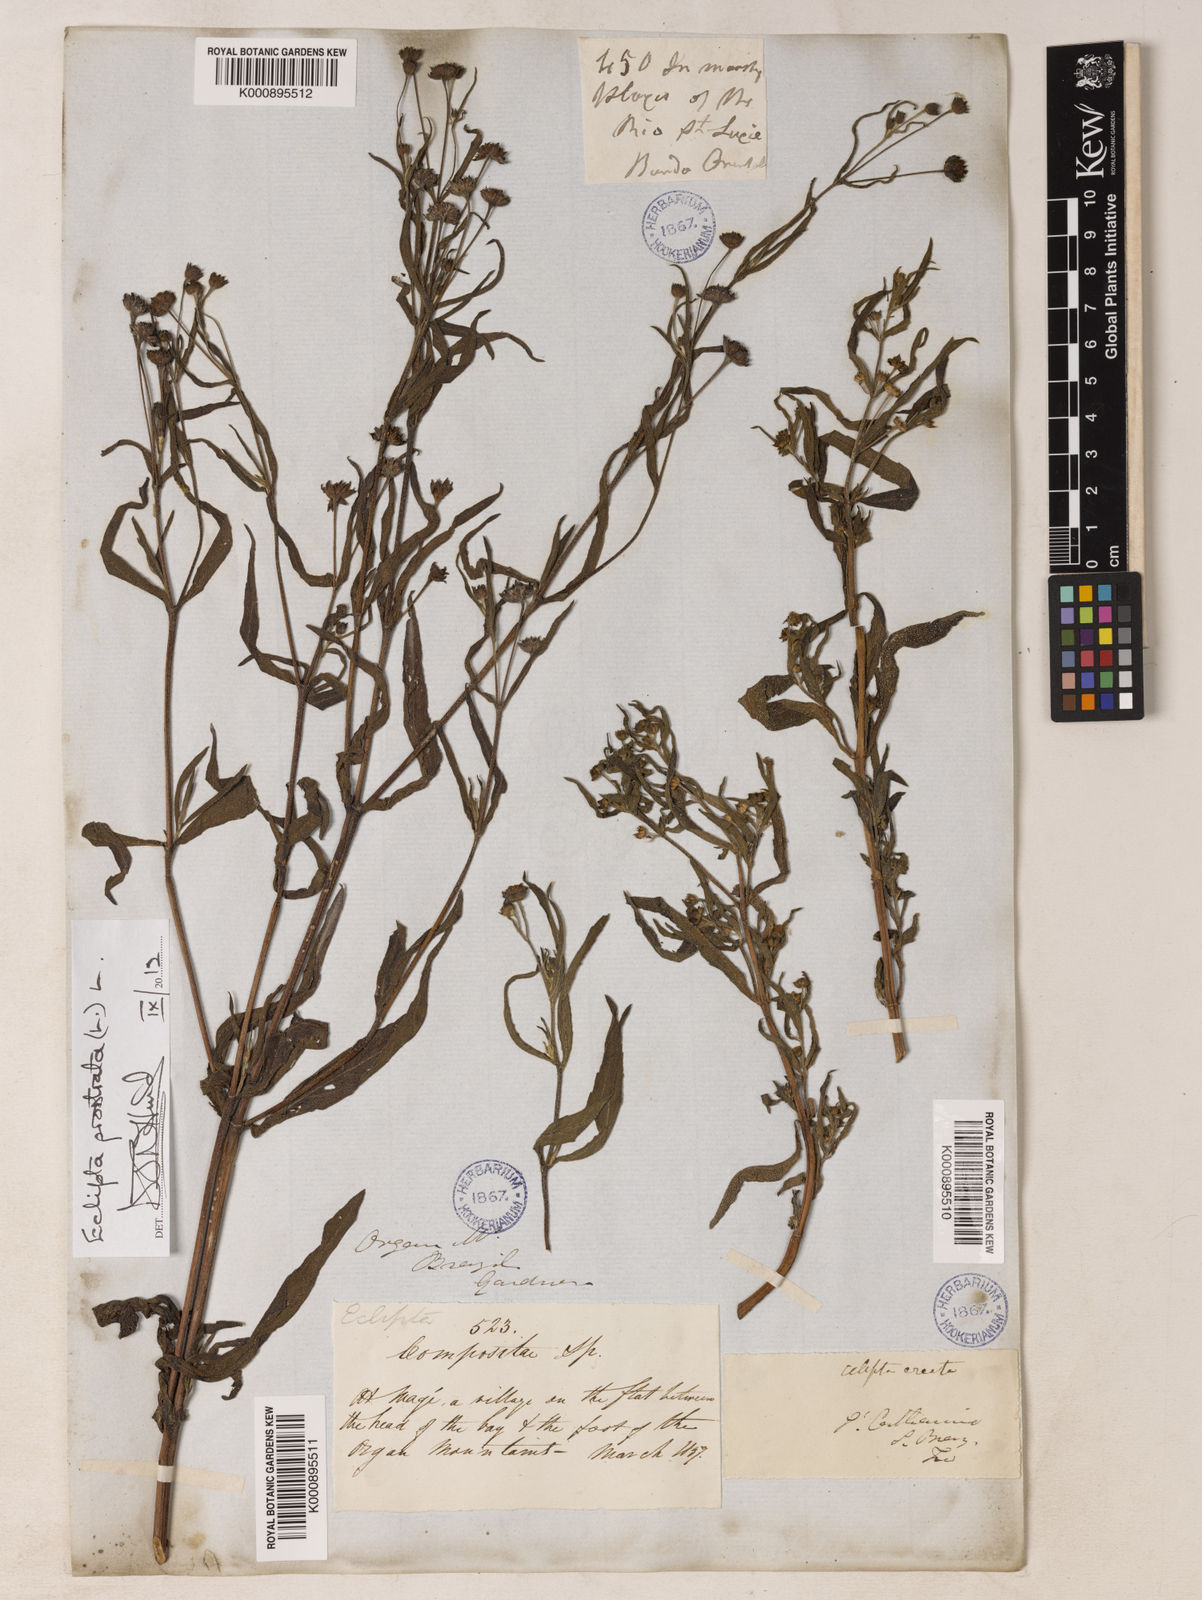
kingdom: Plantae
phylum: Tracheophyta
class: Magnoliopsida
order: Asterales
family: Asteraceae
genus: Eclipta
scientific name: Eclipta prostrata
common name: False daisy
